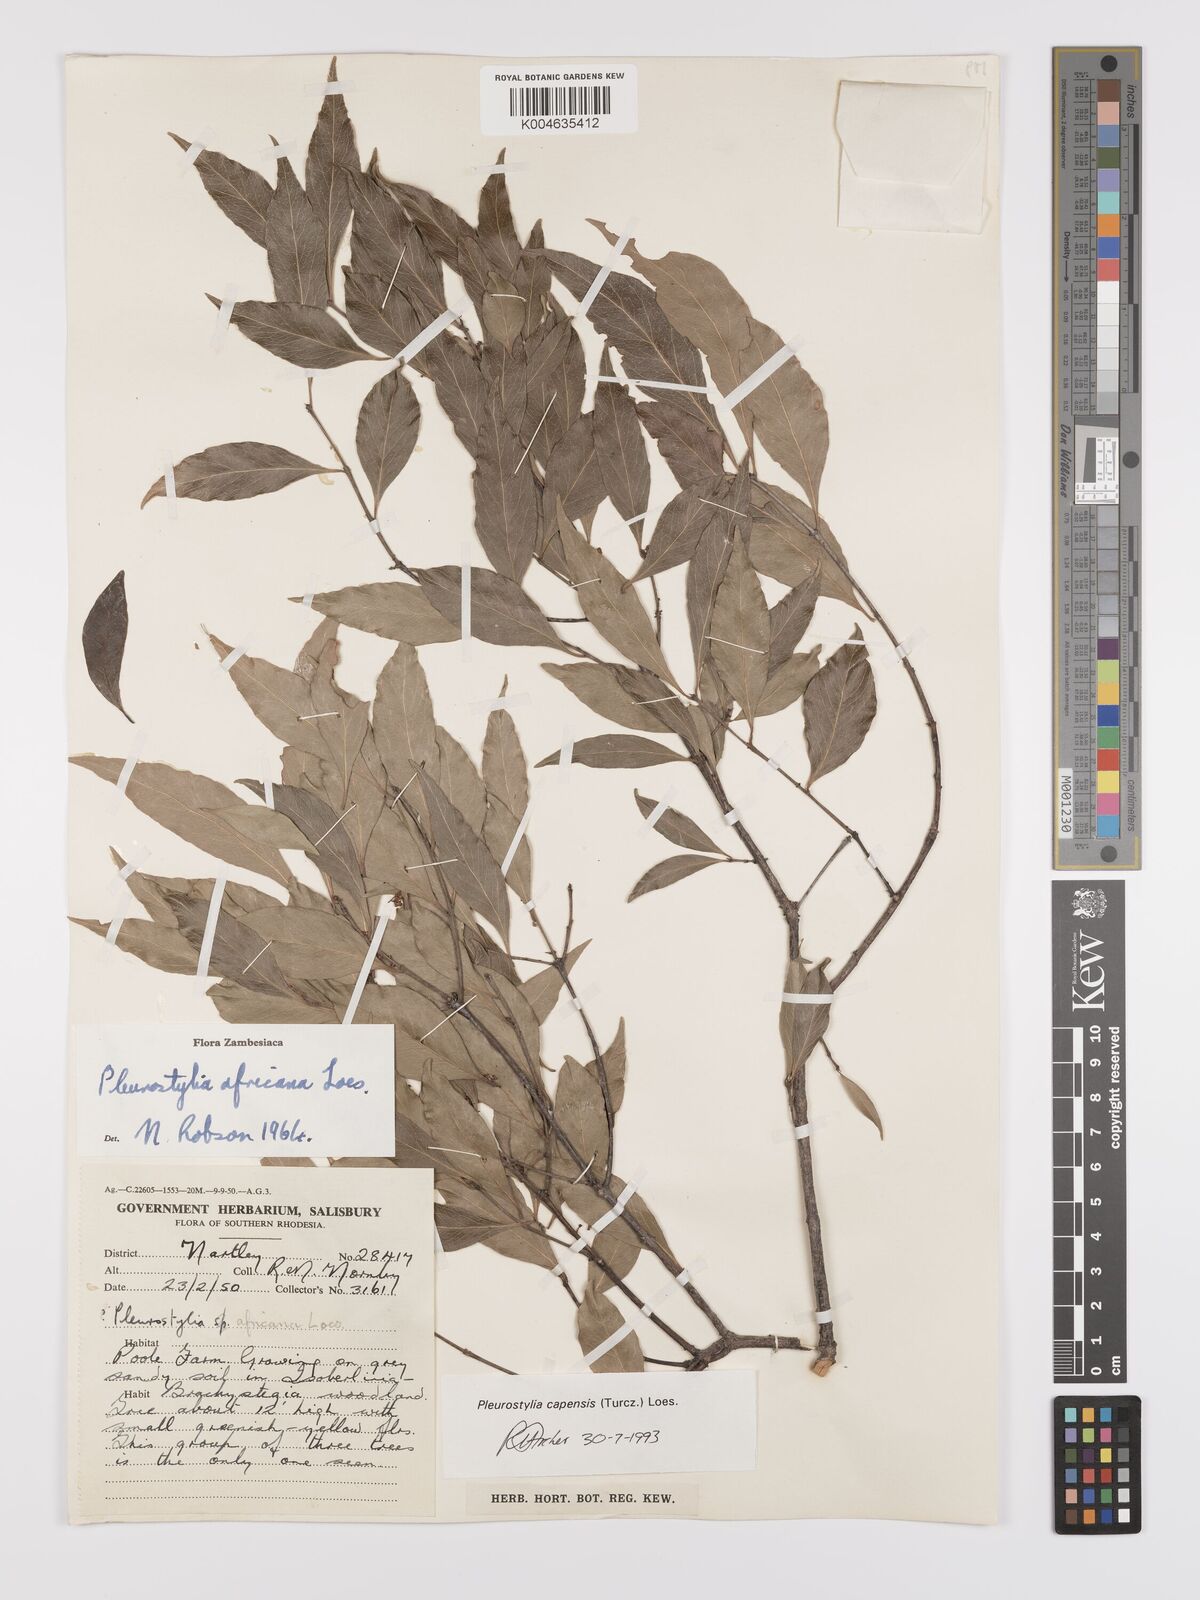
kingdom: Plantae
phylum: Tracheophyta
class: Magnoliopsida
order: Celastrales
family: Celastraceae
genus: Pleurostylia
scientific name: Pleurostylia africana
